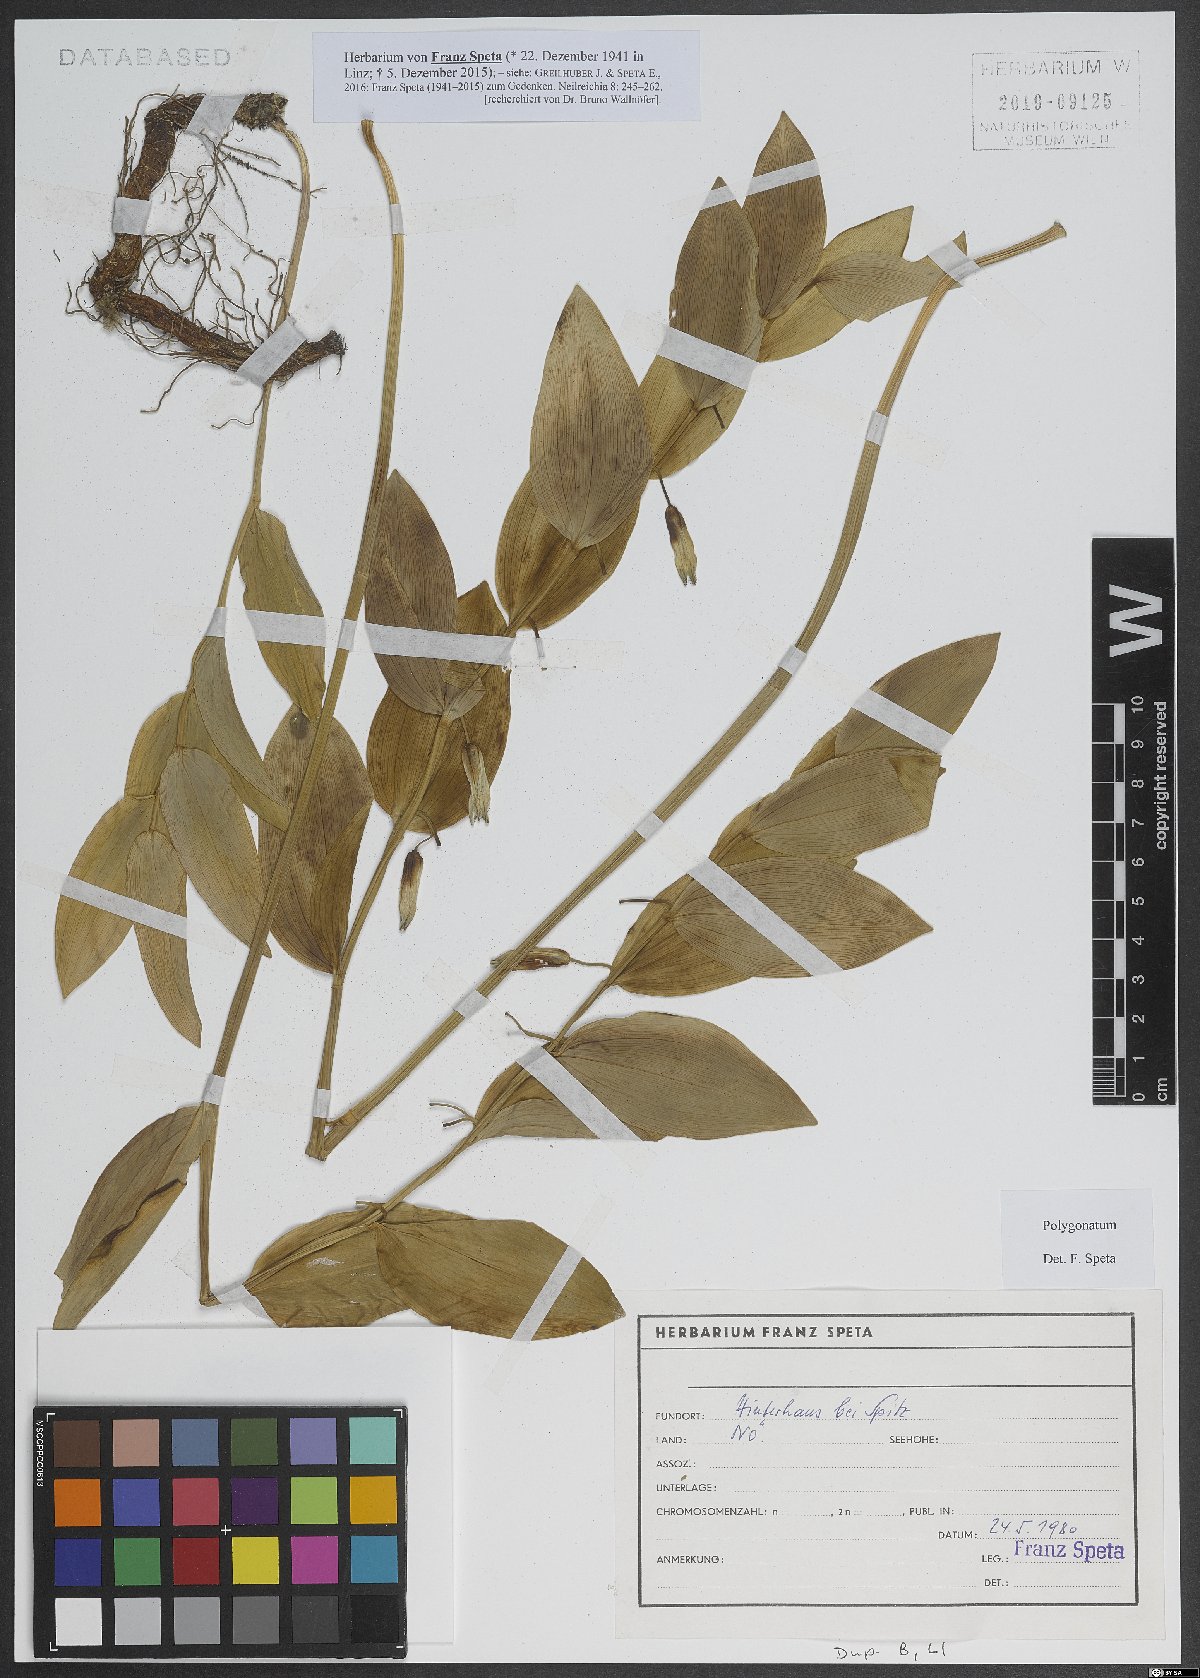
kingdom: Plantae
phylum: Tracheophyta
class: Liliopsida
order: Asparagales
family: Asparagaceae
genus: Polygonatum
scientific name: Polygonatum
